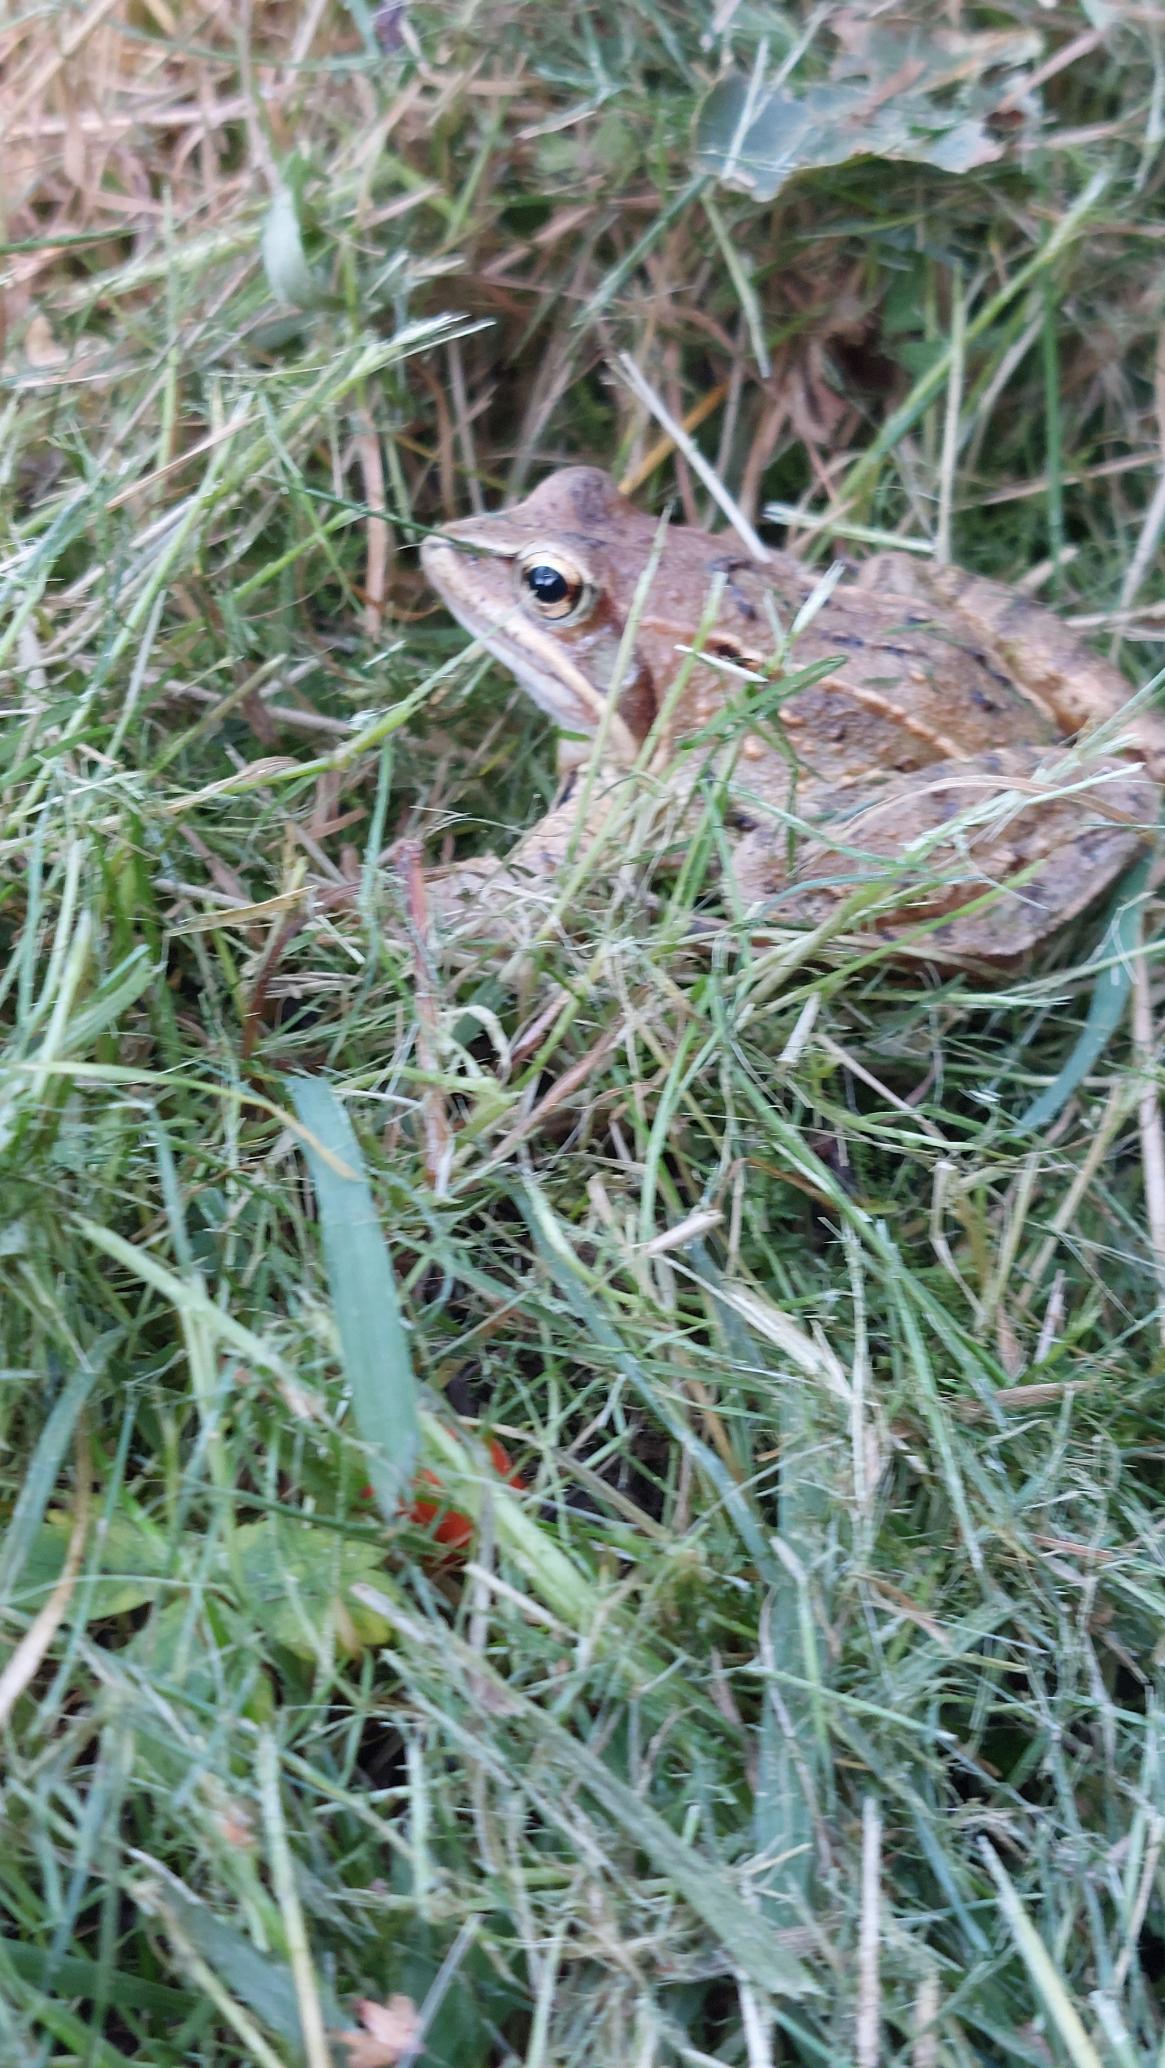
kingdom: Animalia
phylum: Chordata
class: Amphibia
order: Anura
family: Ranidae
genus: Rana
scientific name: Rana arvalis
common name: Spidssnudet frø
